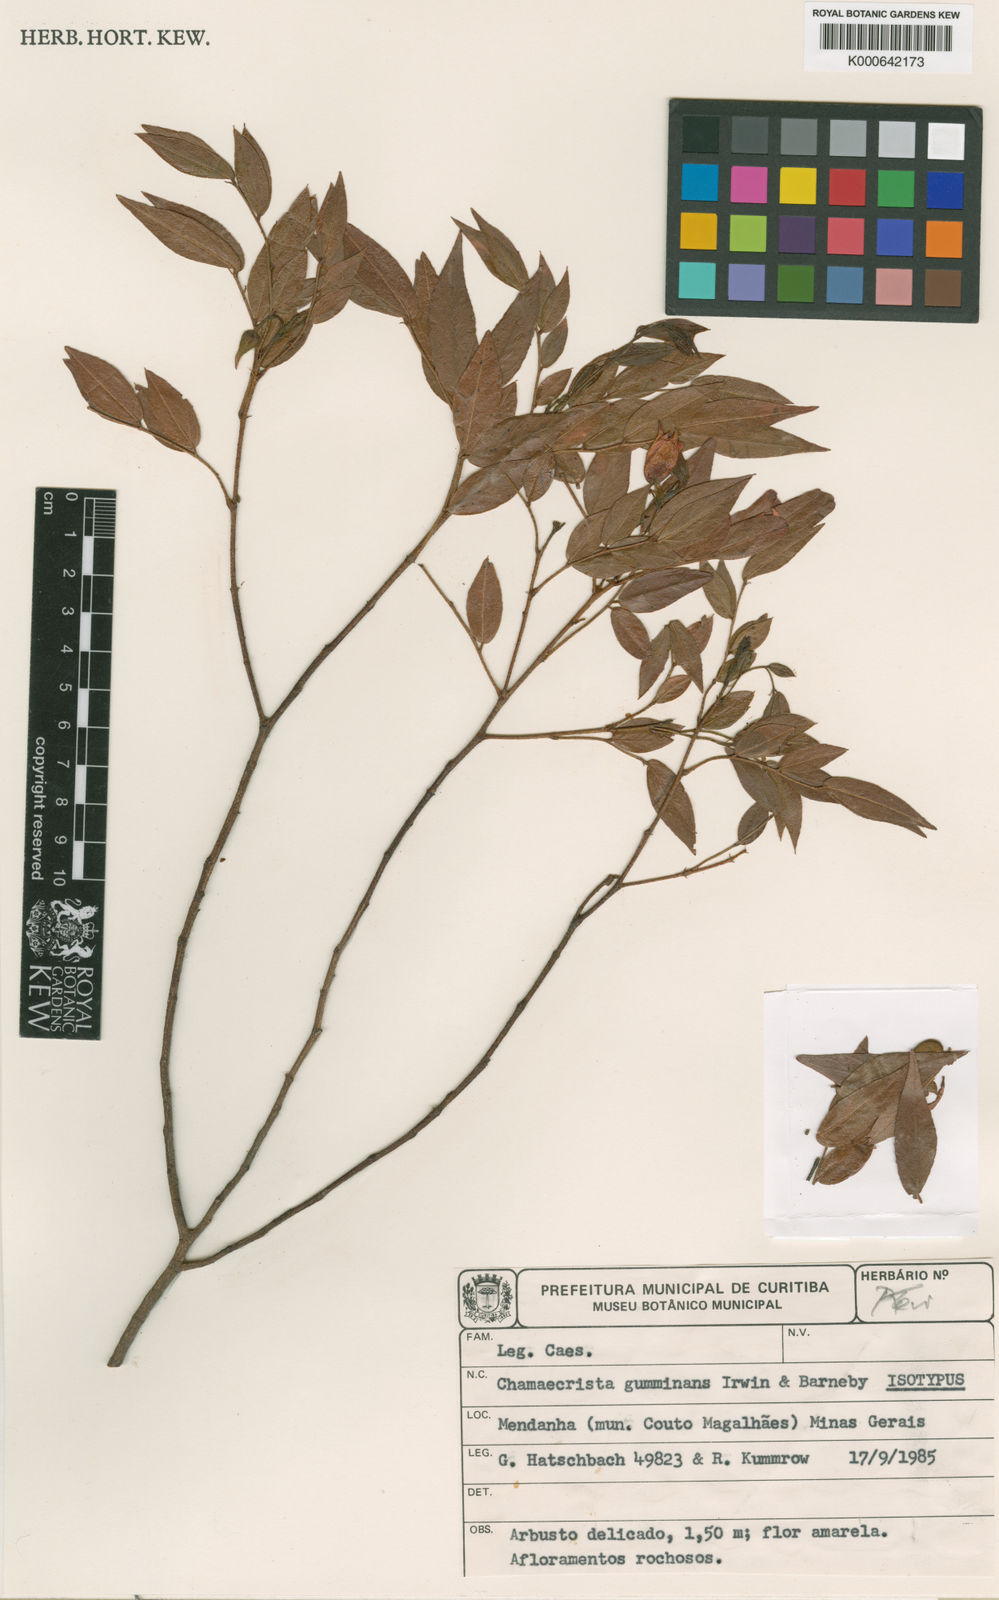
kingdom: Plantae
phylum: Tracheophyta
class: Magnoliopsida
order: Fabales
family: Fabaceae
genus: Chamaecrista
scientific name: Chamaecrista gumminans
